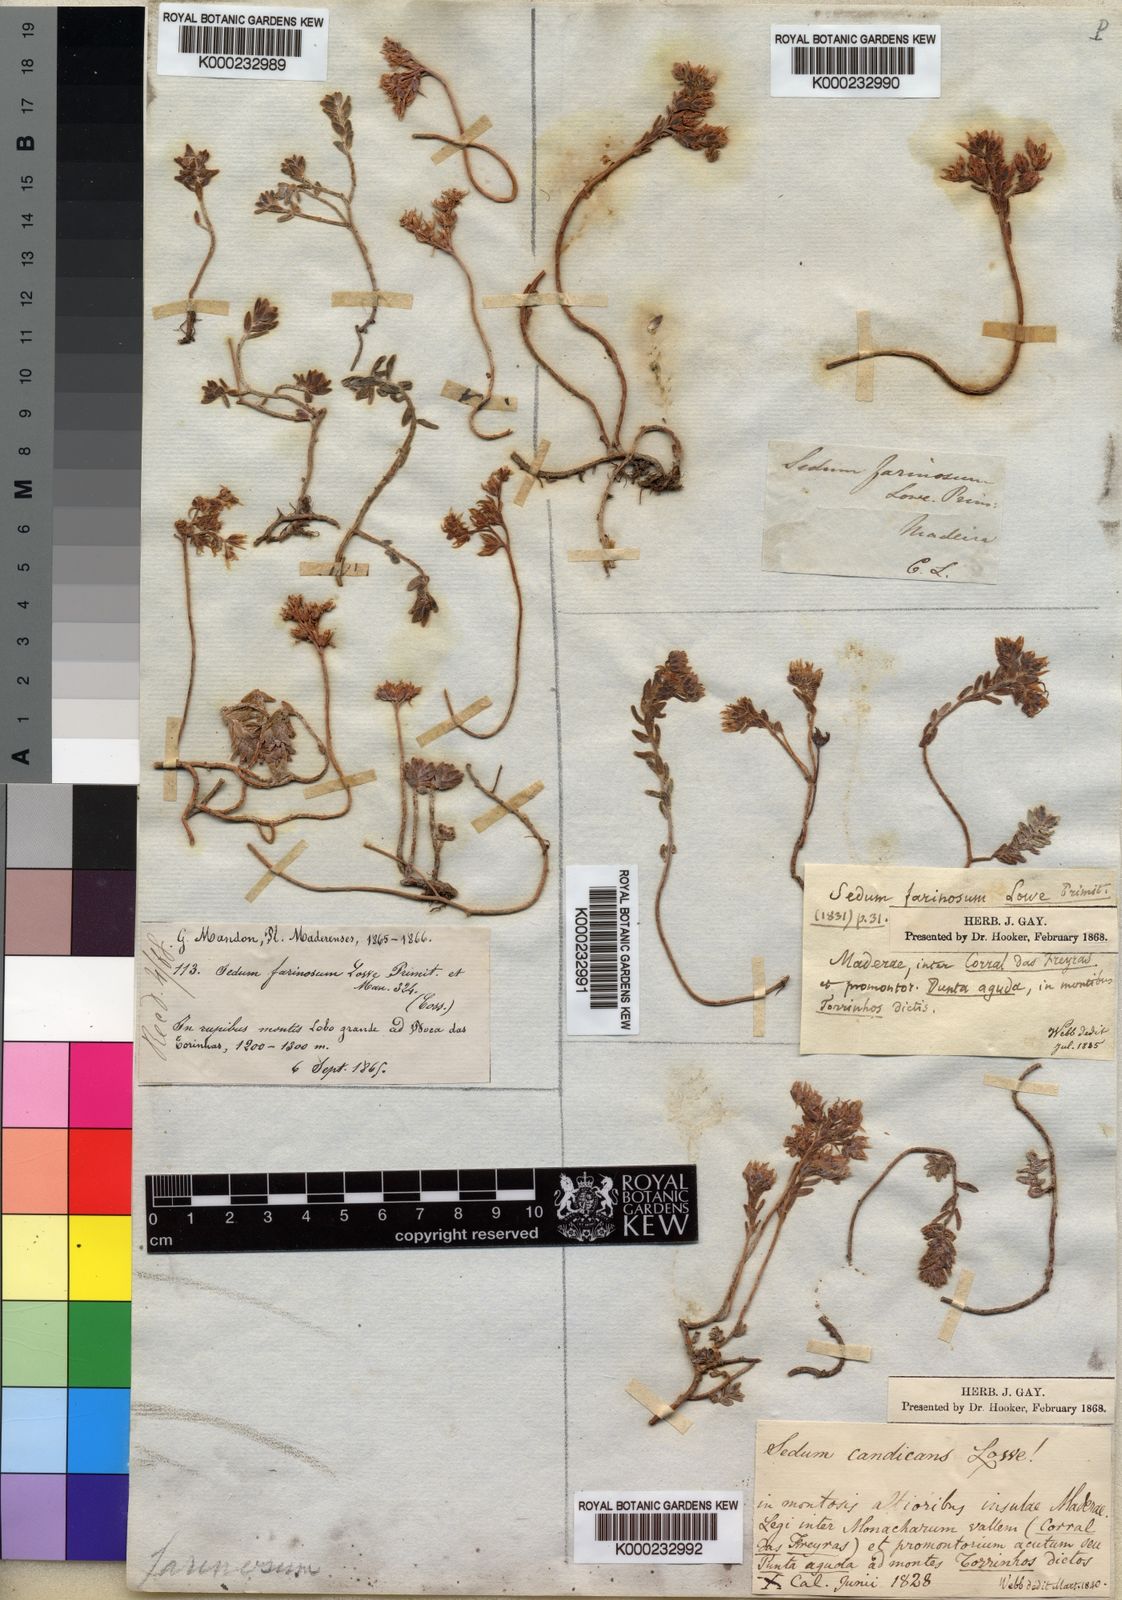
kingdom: Plantae
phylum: Tracheophyta
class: Magnoliopsida
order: Saxifragales
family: Crassulaceae
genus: Sedum
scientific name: Sedum farinosum
